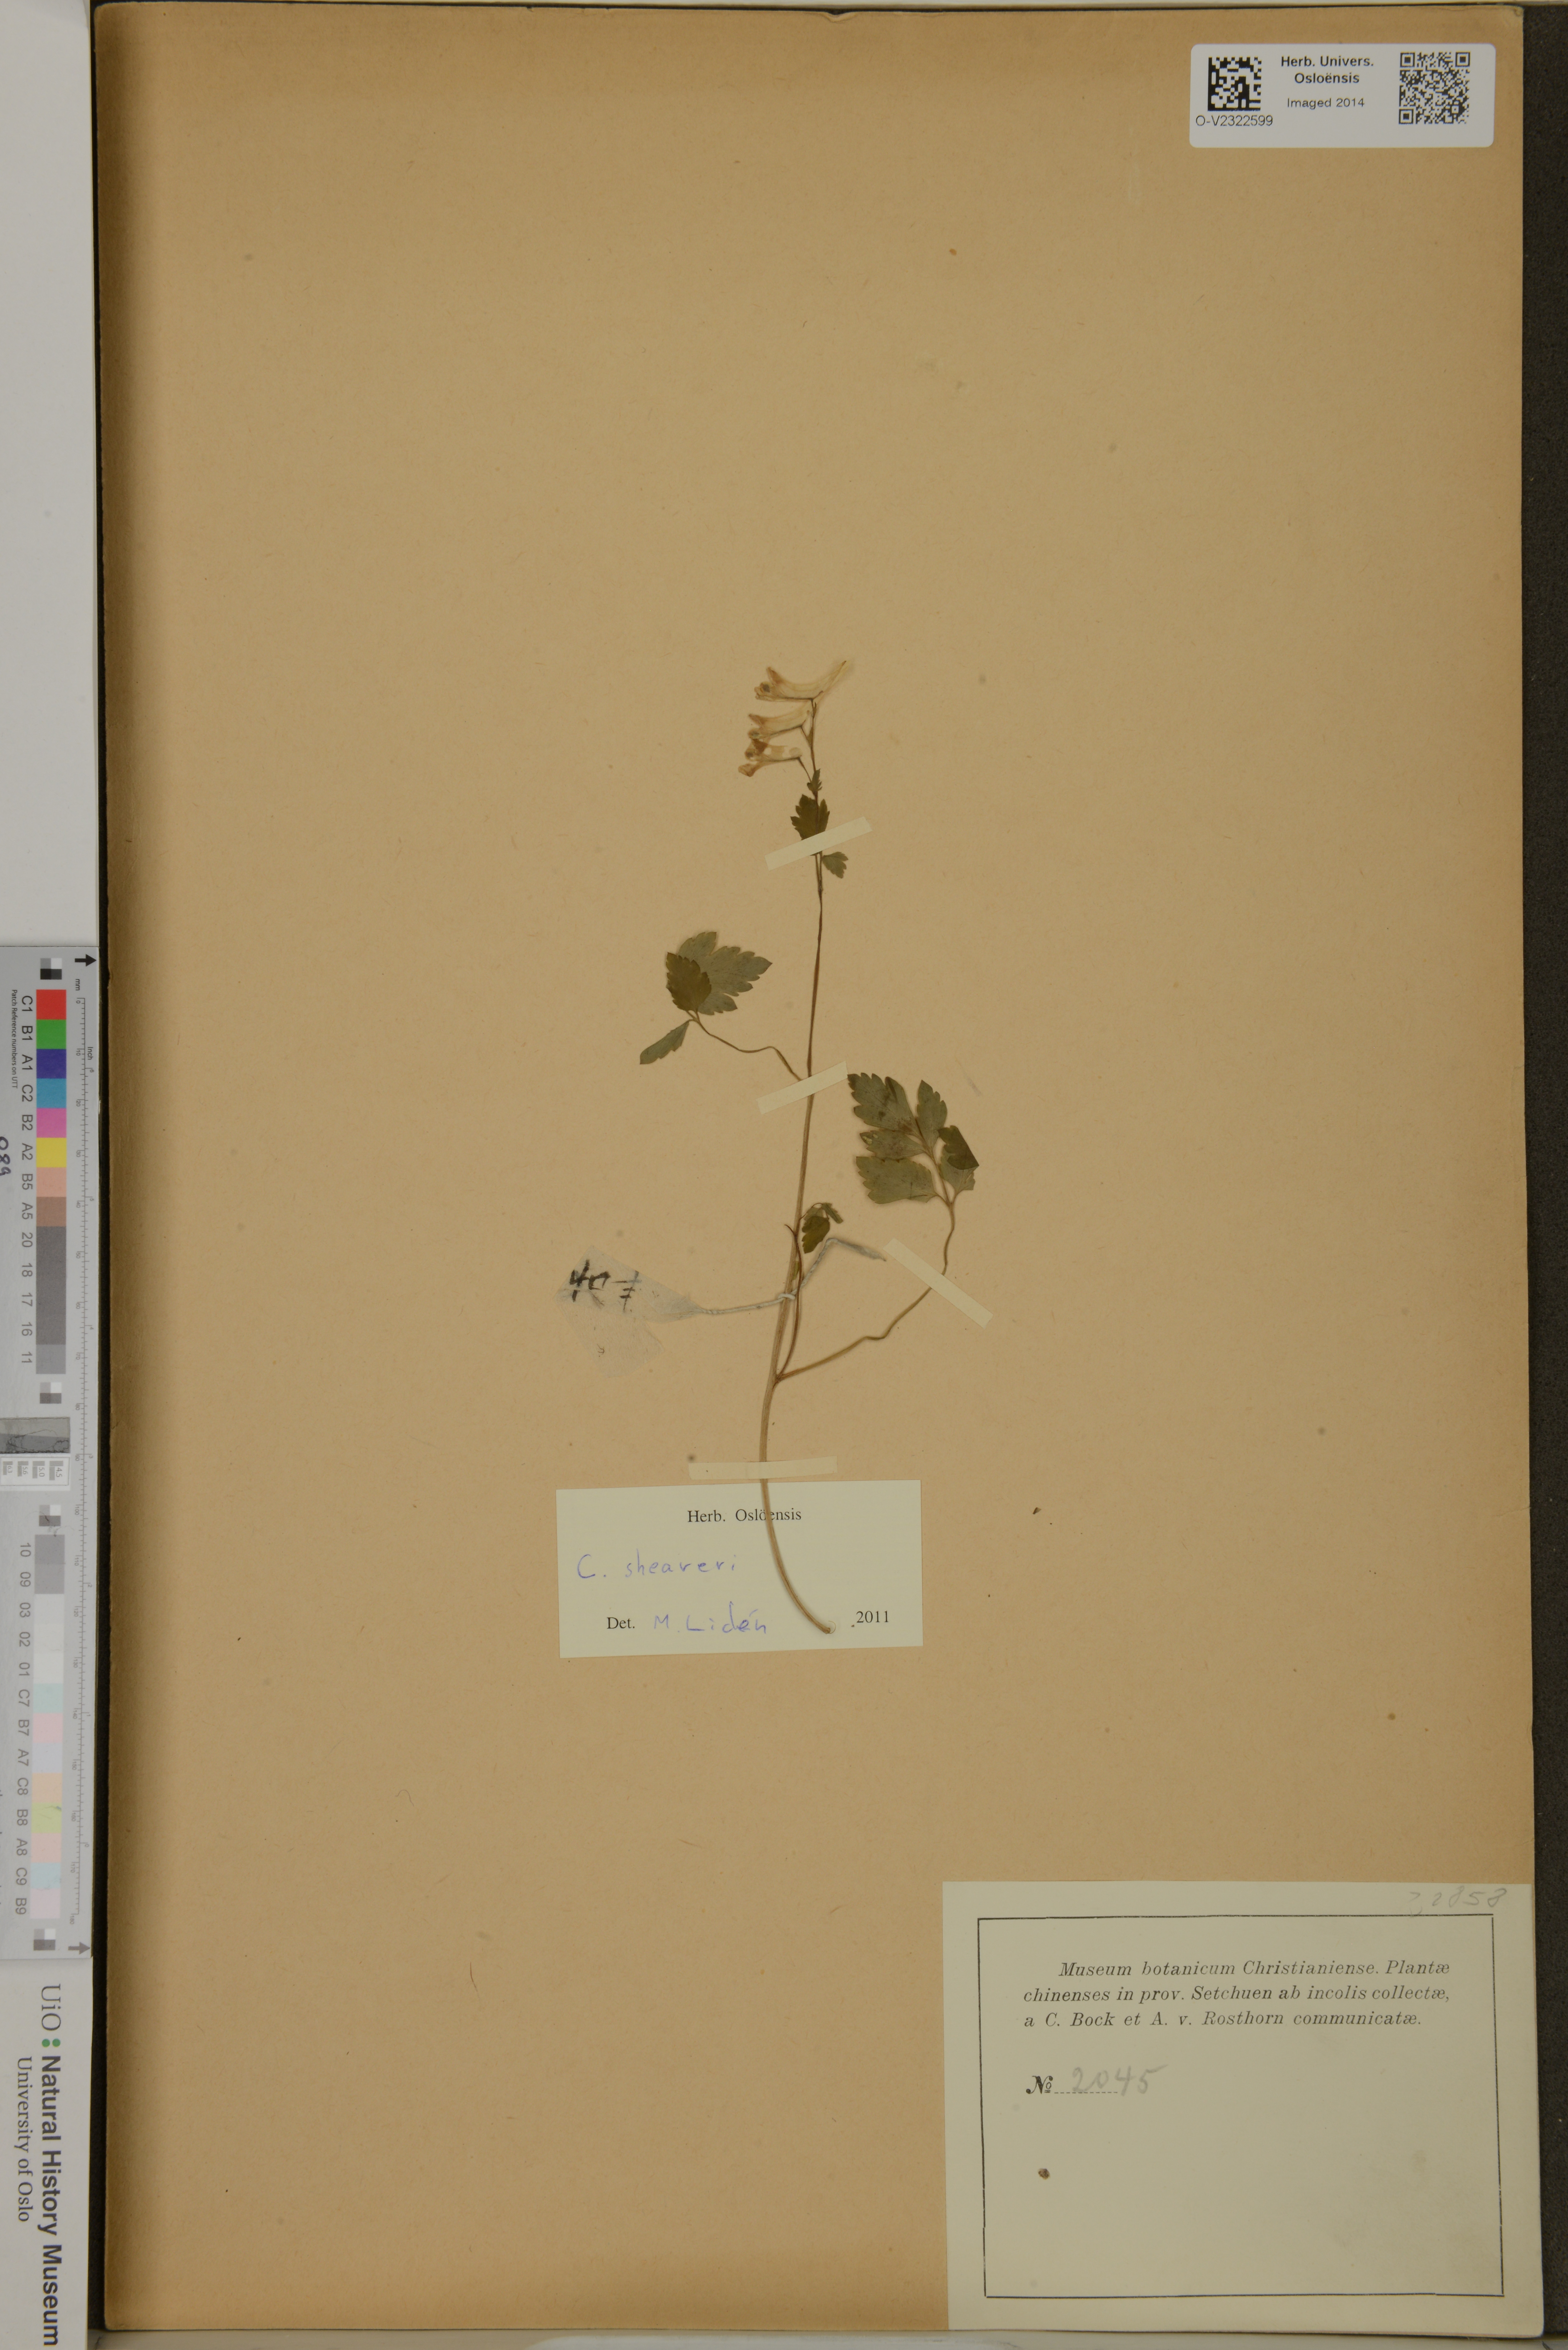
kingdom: Plantae
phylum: Tracheophyta
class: Magnoliopsida
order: Ranunculales
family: Papaveraceae
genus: Corydalis
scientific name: Corydalis sheareri
